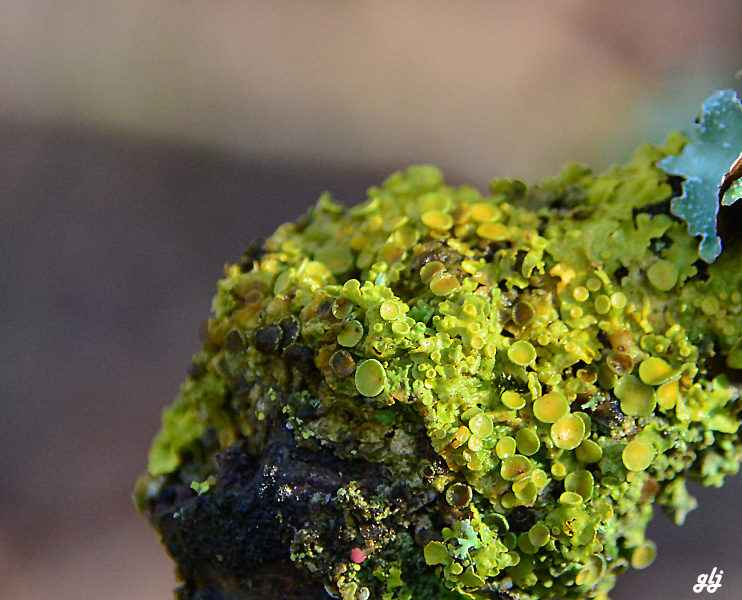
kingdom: Fungi
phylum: Ascomycota
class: Lecanoromycetes
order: Teloschistales
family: Teloschistaceae
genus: Xanthoria
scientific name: Xanthoria parietina
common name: almindelig væggelav
